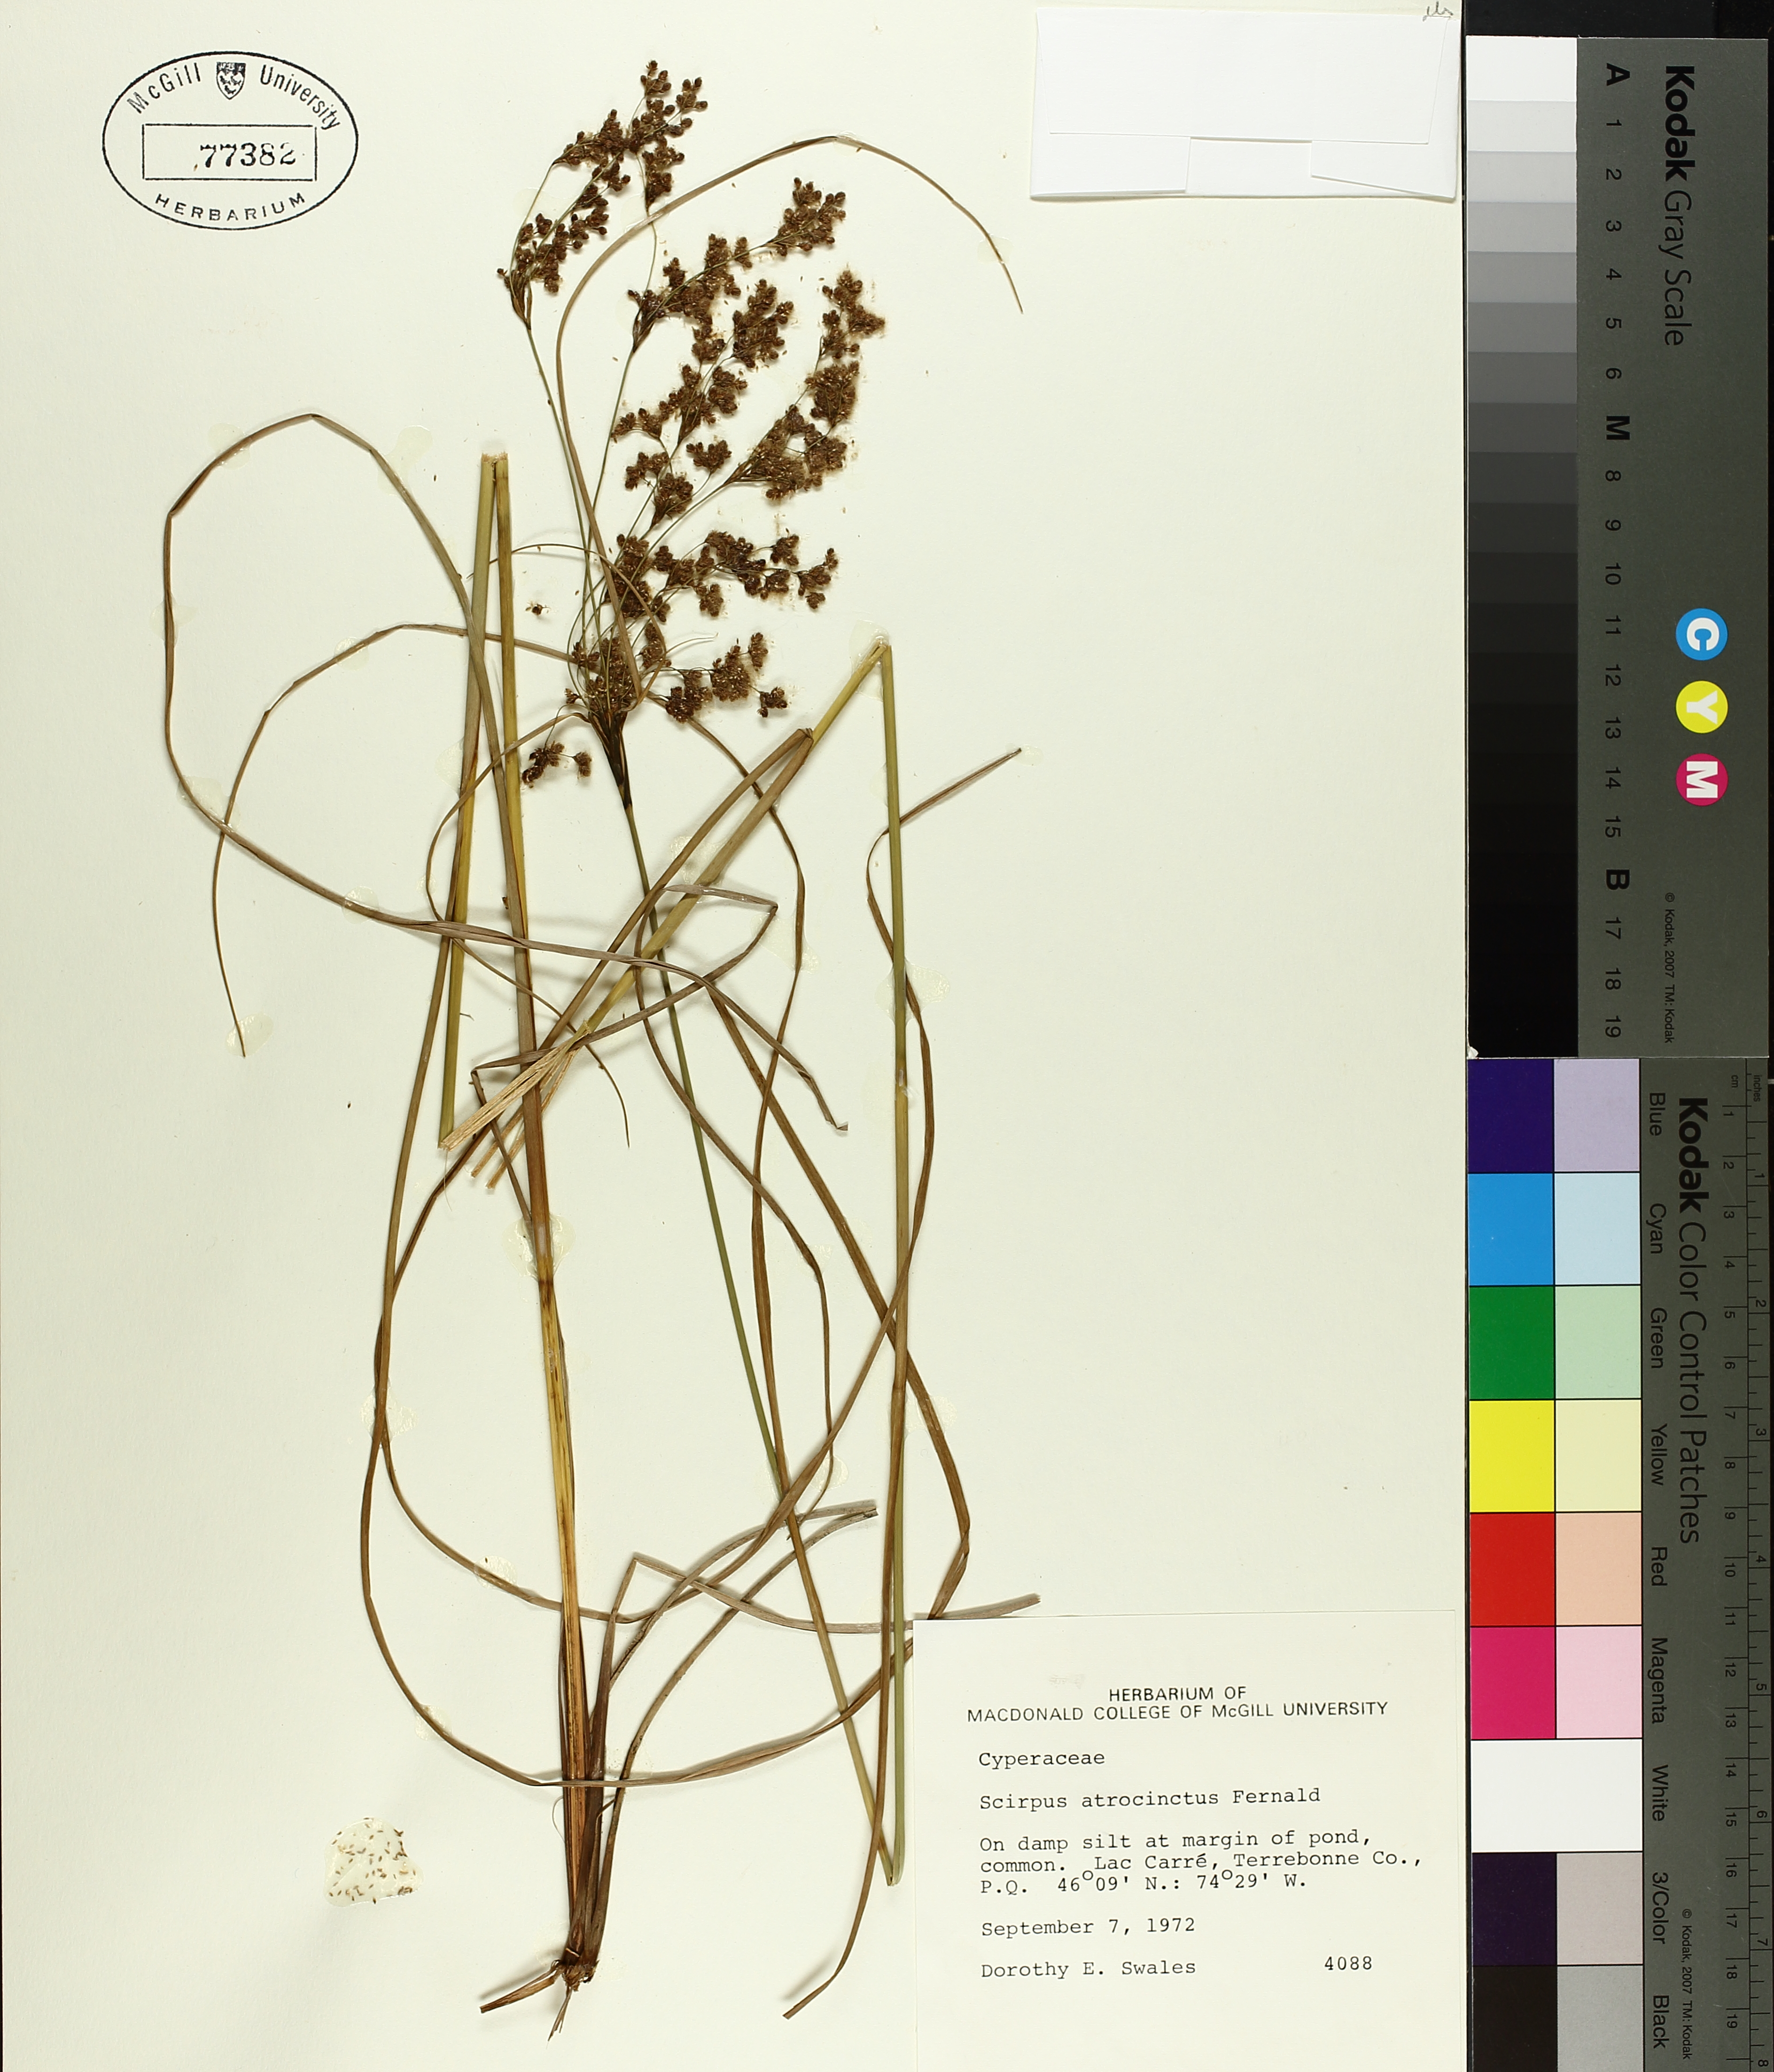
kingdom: Plantae
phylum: Tracheophyta
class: Liliopsida
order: Poales
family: Cyperaceae
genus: Scirpus
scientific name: Scirpus atrocinctus
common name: Black-girdled bulrush
